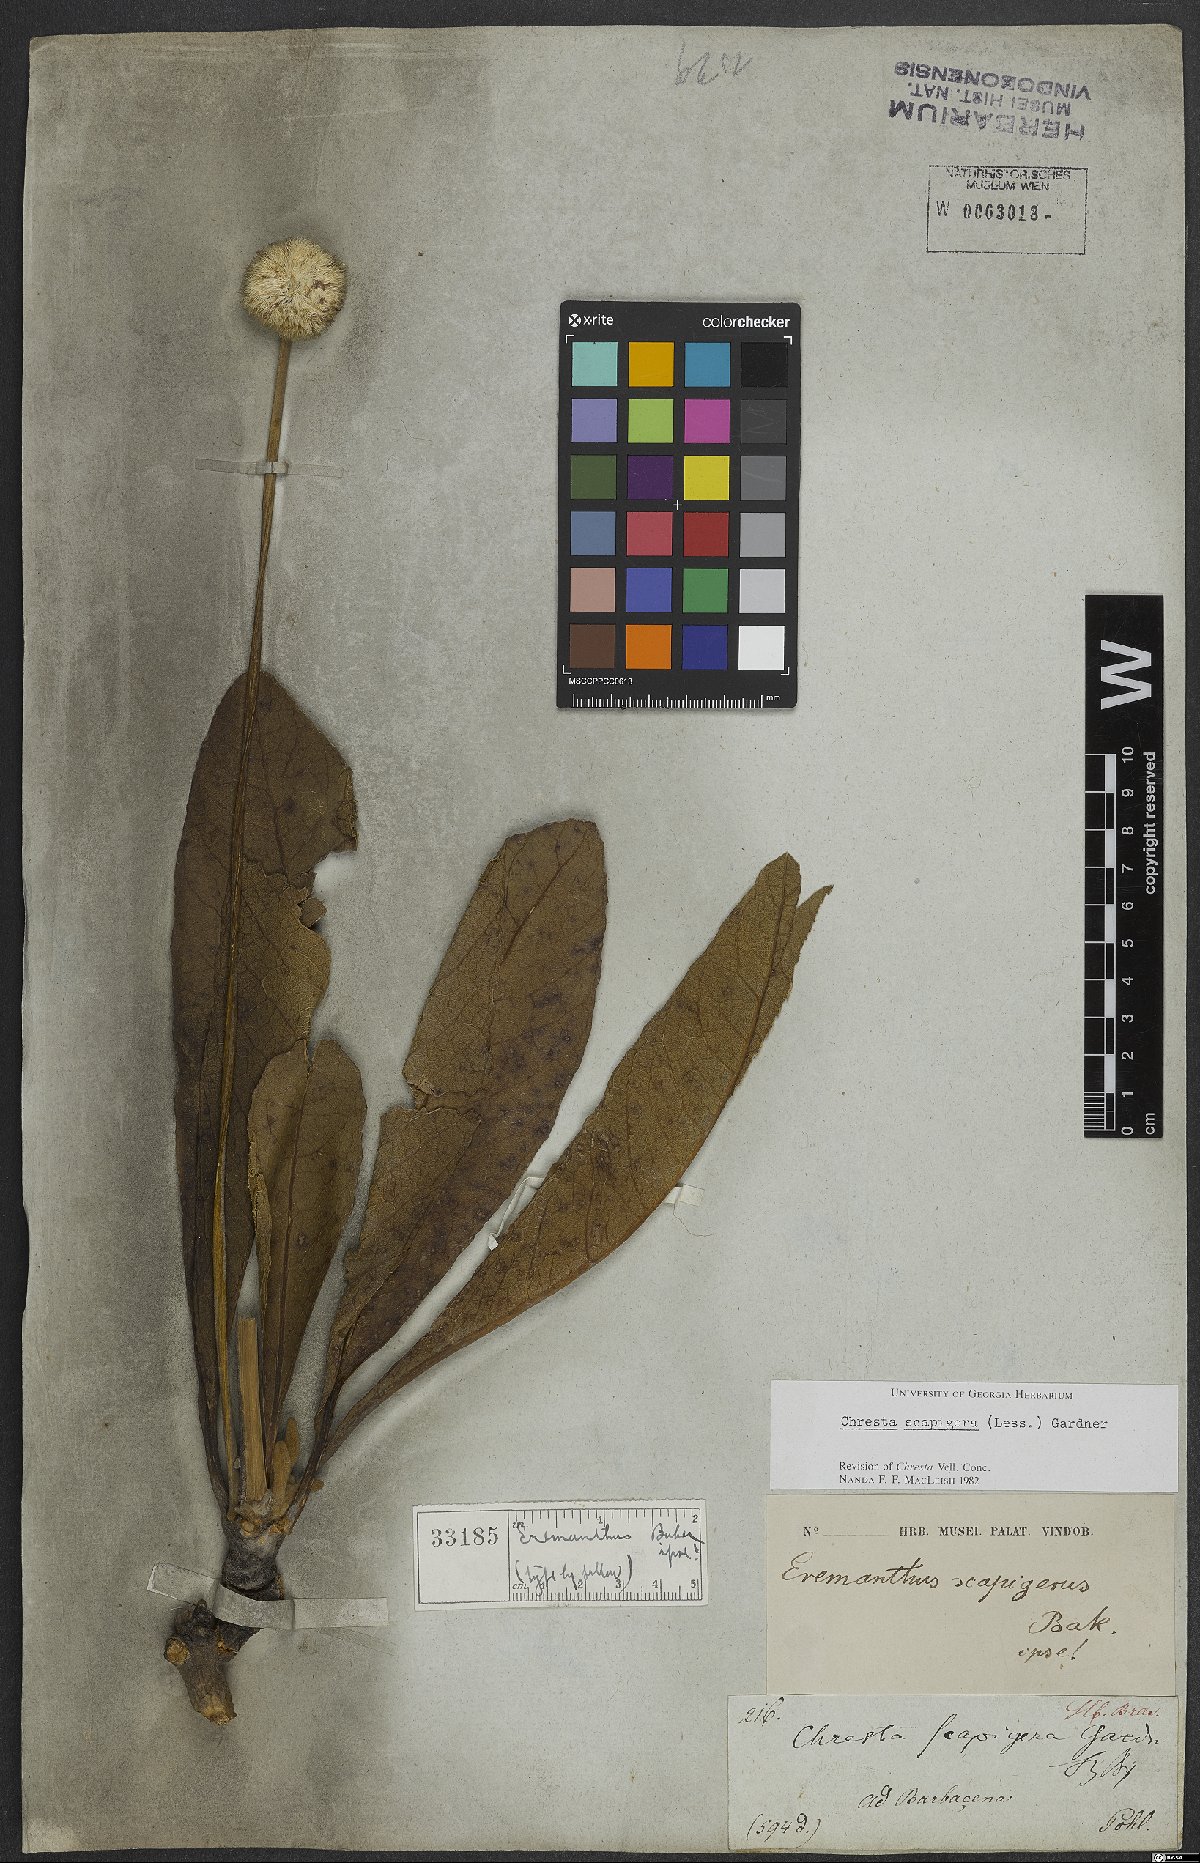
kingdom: Plantae
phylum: Tracheophyta
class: Magnoliopsida
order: Asterales
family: Asteraceae
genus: Chresta
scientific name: Chresta scapigera
